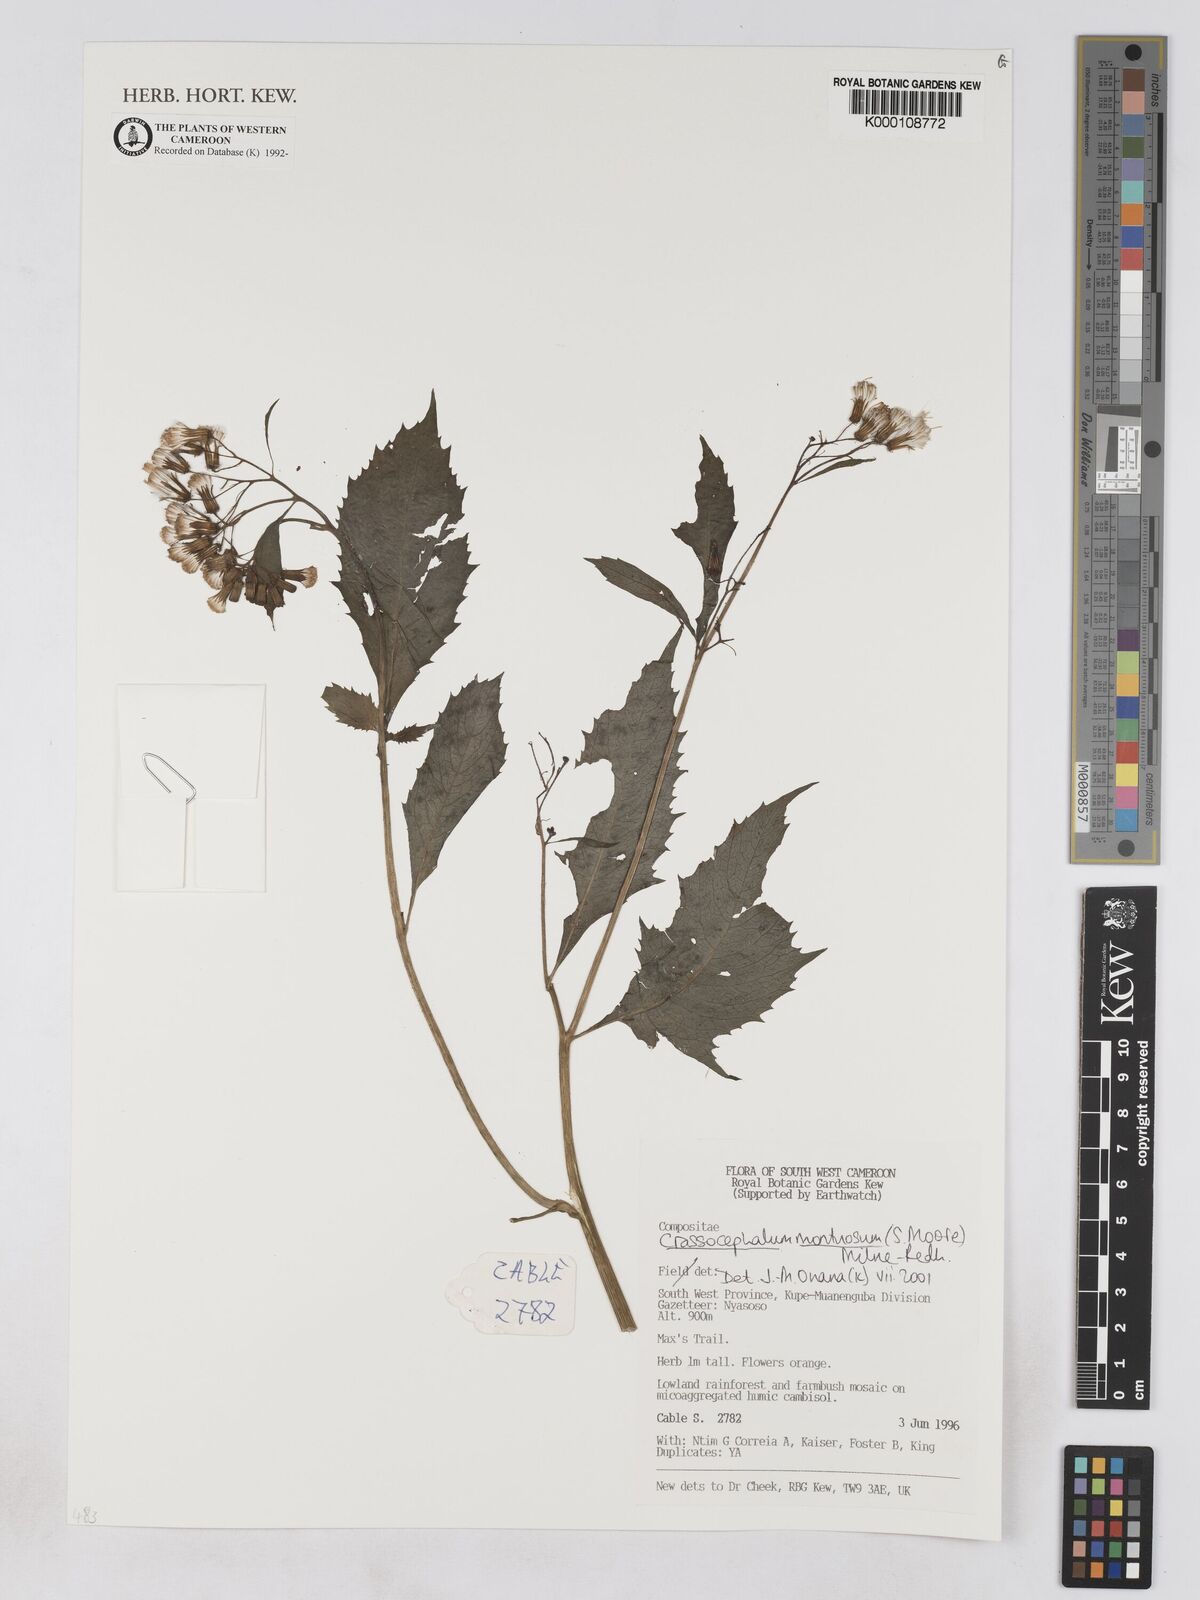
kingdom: Plantae
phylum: Tracheophyta
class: Magnoliopsida
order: Asterales
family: Asteraceae
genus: Crassocephalum
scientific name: Crassocephalum montuosum
